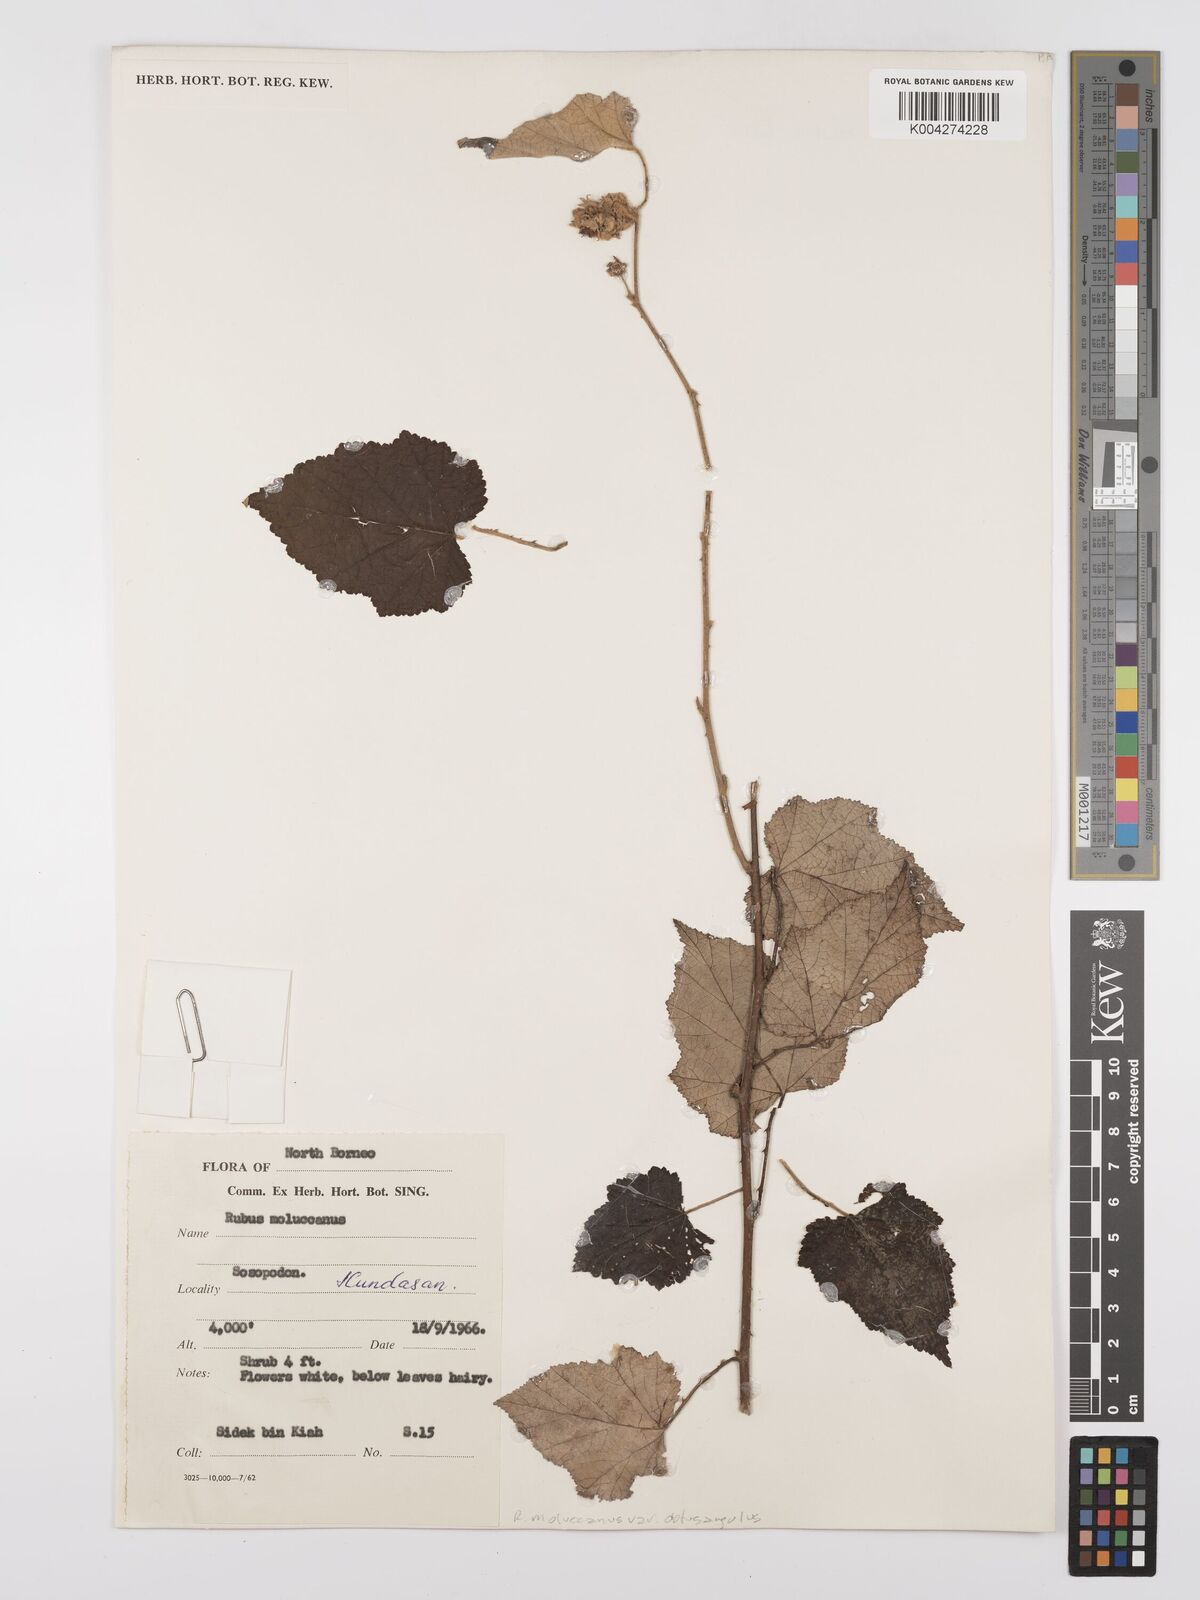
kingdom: Plantae
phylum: Tracheophyta
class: Magnoliopsida
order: Rosales
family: Rosaceae
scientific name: Rosaceae
